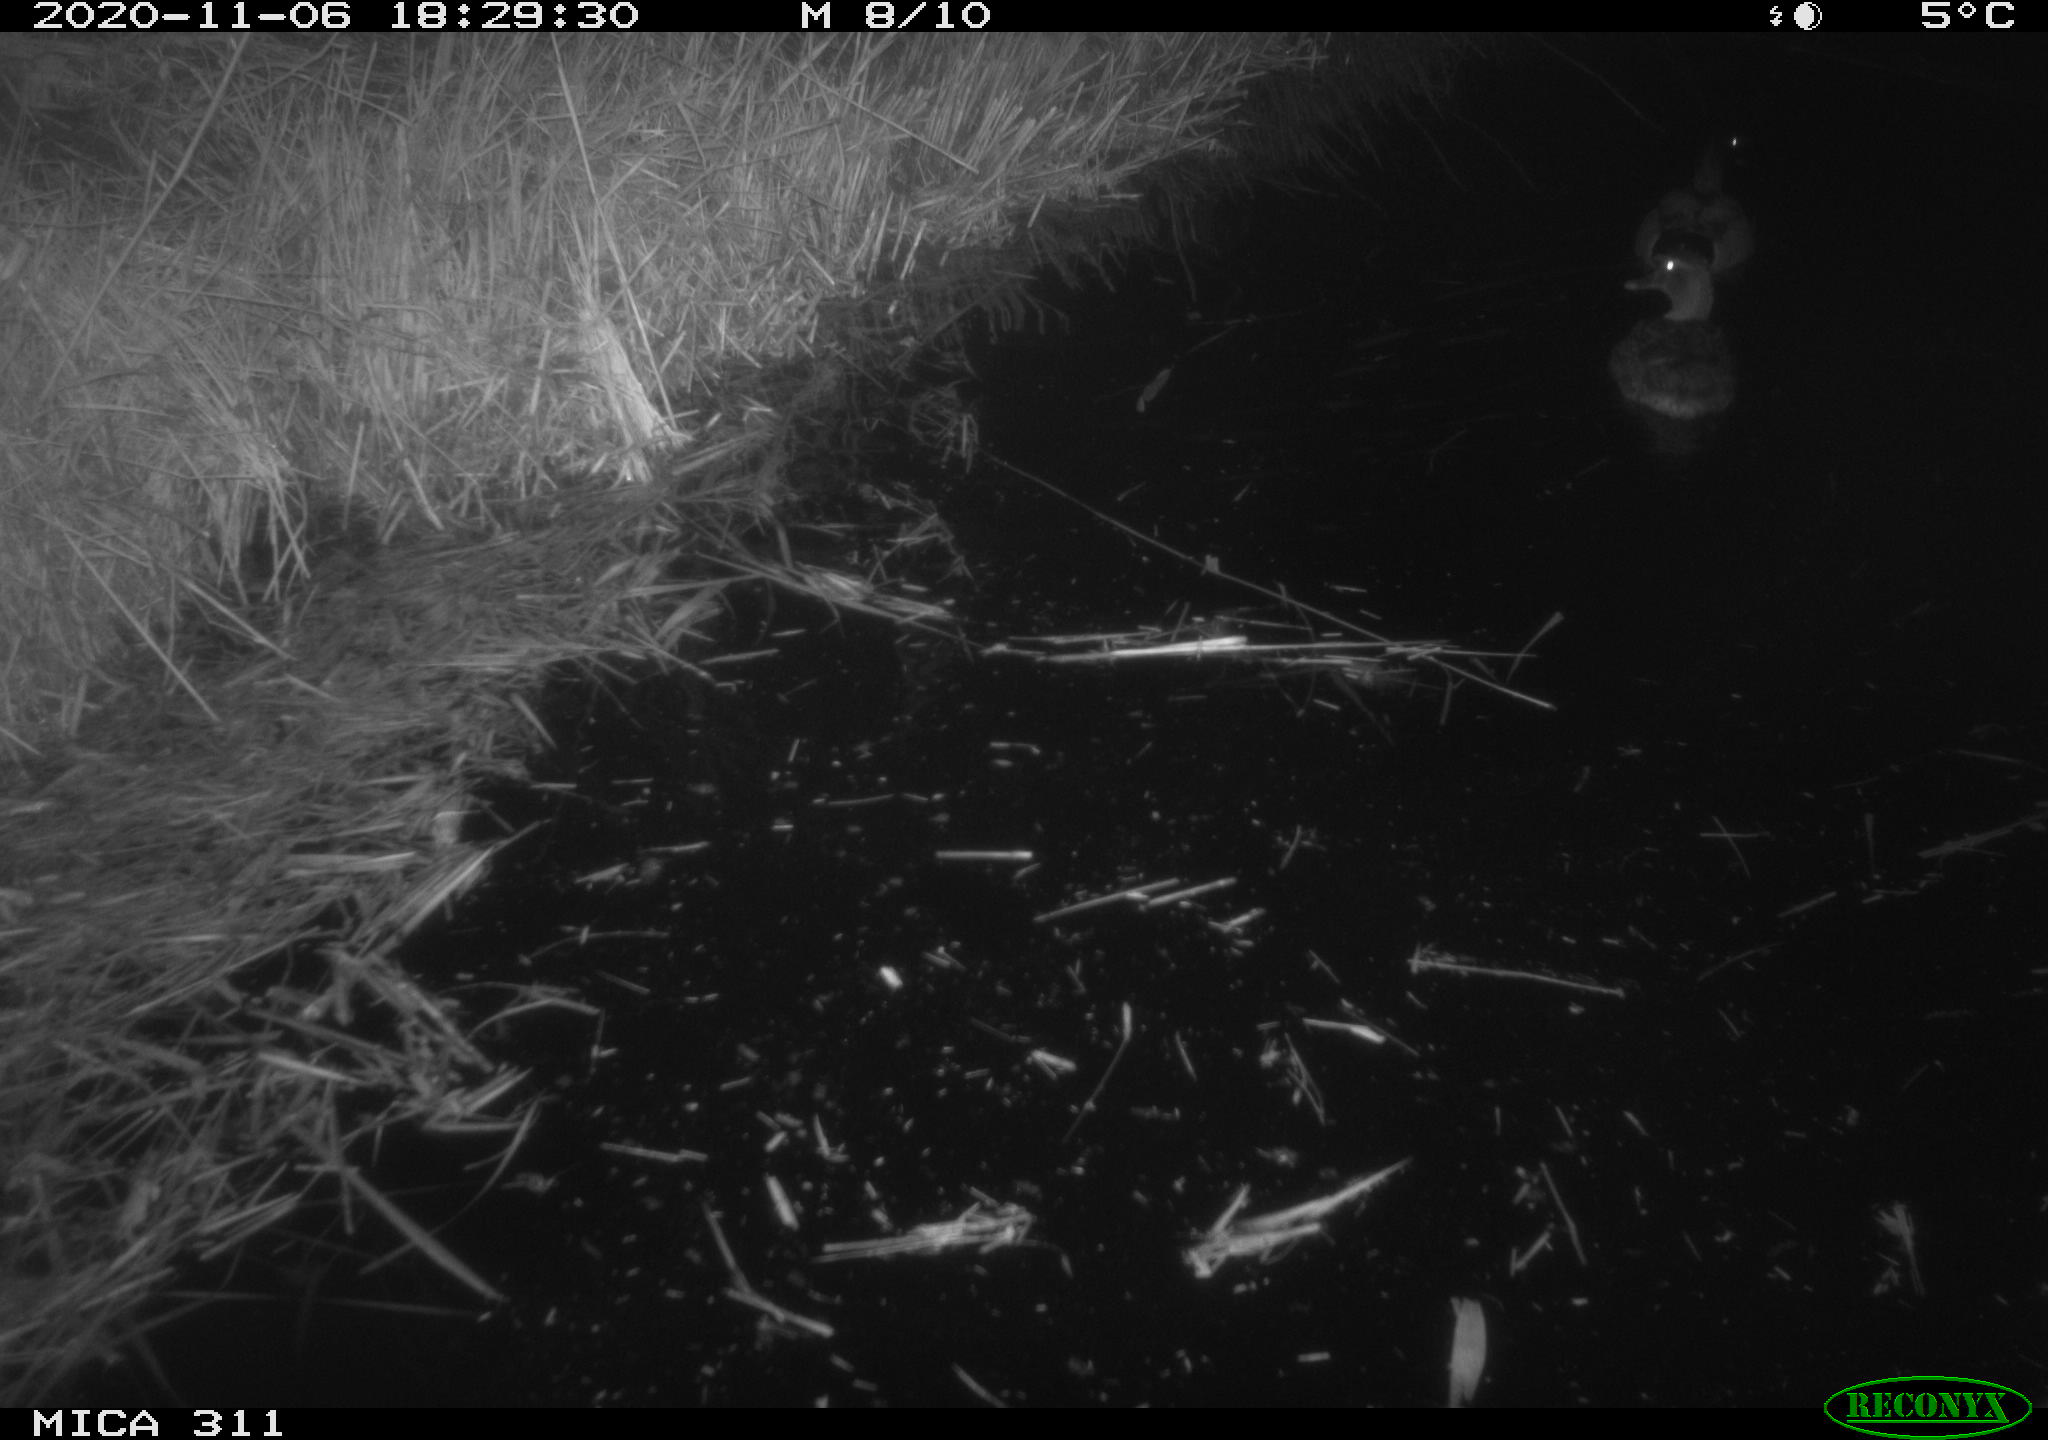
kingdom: Animalia
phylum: Chordata
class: Aves
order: Anseriformes
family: Anatidae
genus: Anas
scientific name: Anas platyrhynchos
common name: Mallard
